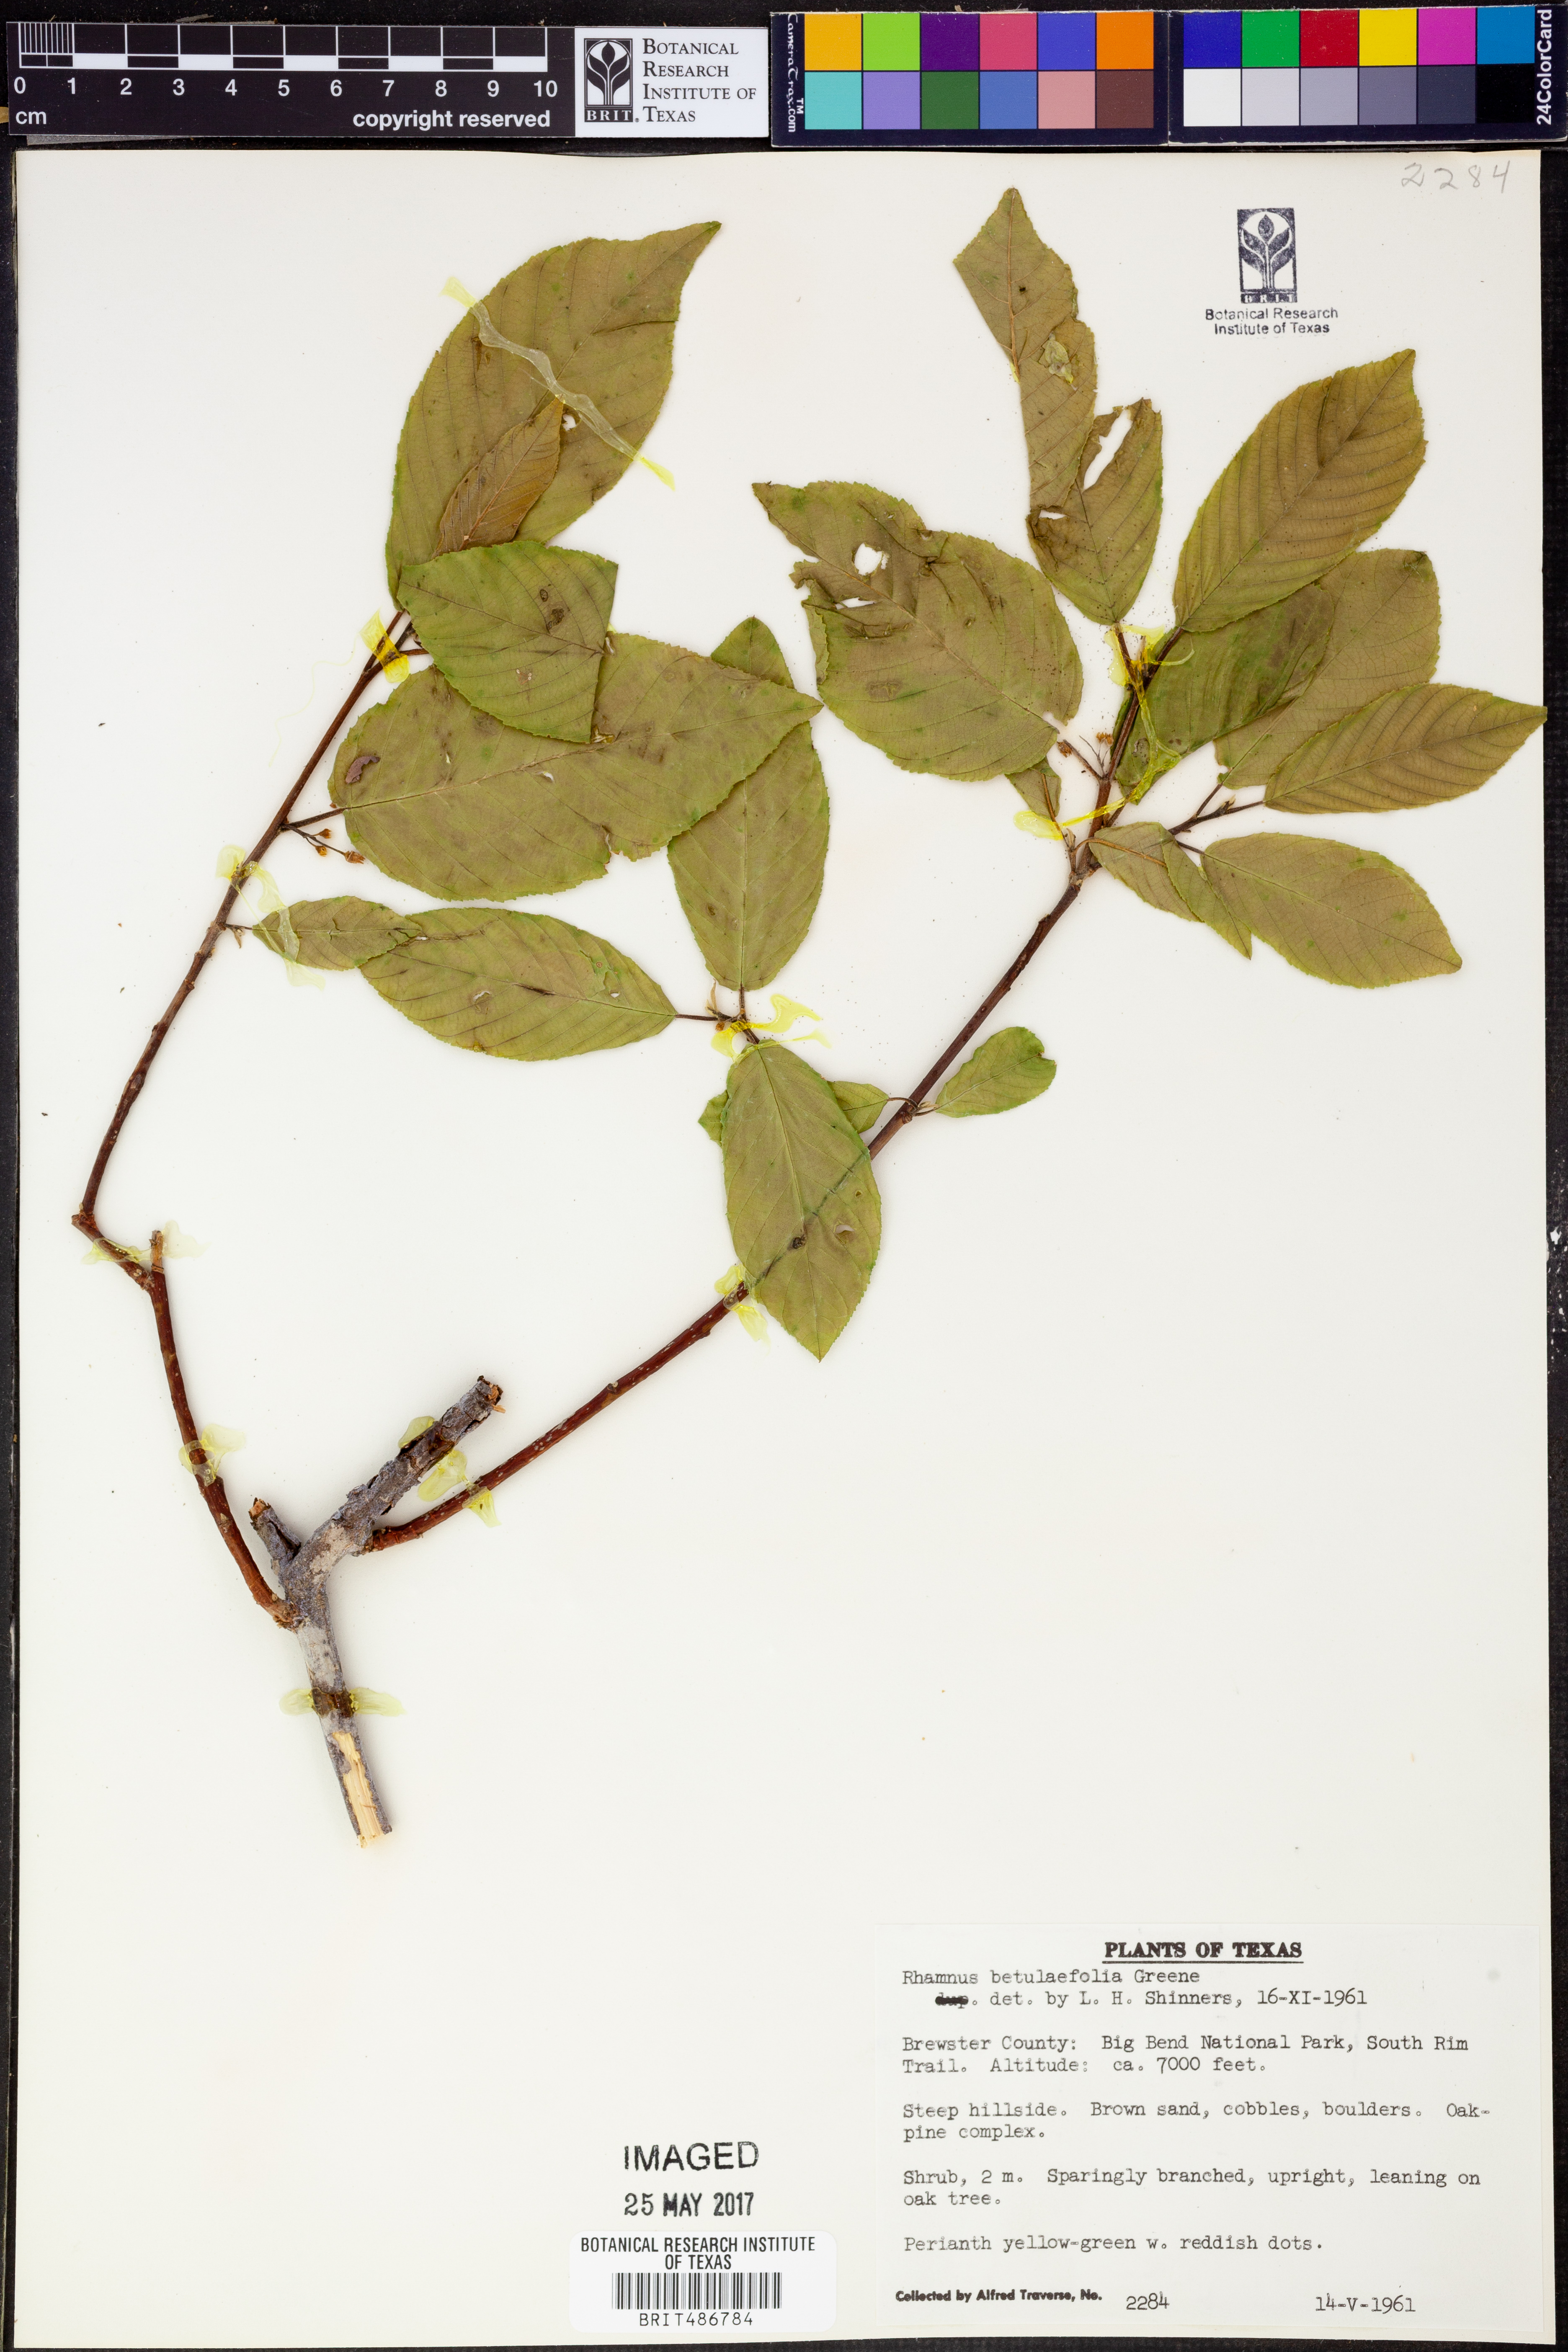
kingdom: Plantae
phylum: Tracheophyta
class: Magnoliopsida
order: Rosales
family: Rhamnaceae
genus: Frangula
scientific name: Frangula betulifolia
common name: Birch-leaf buckthorn
